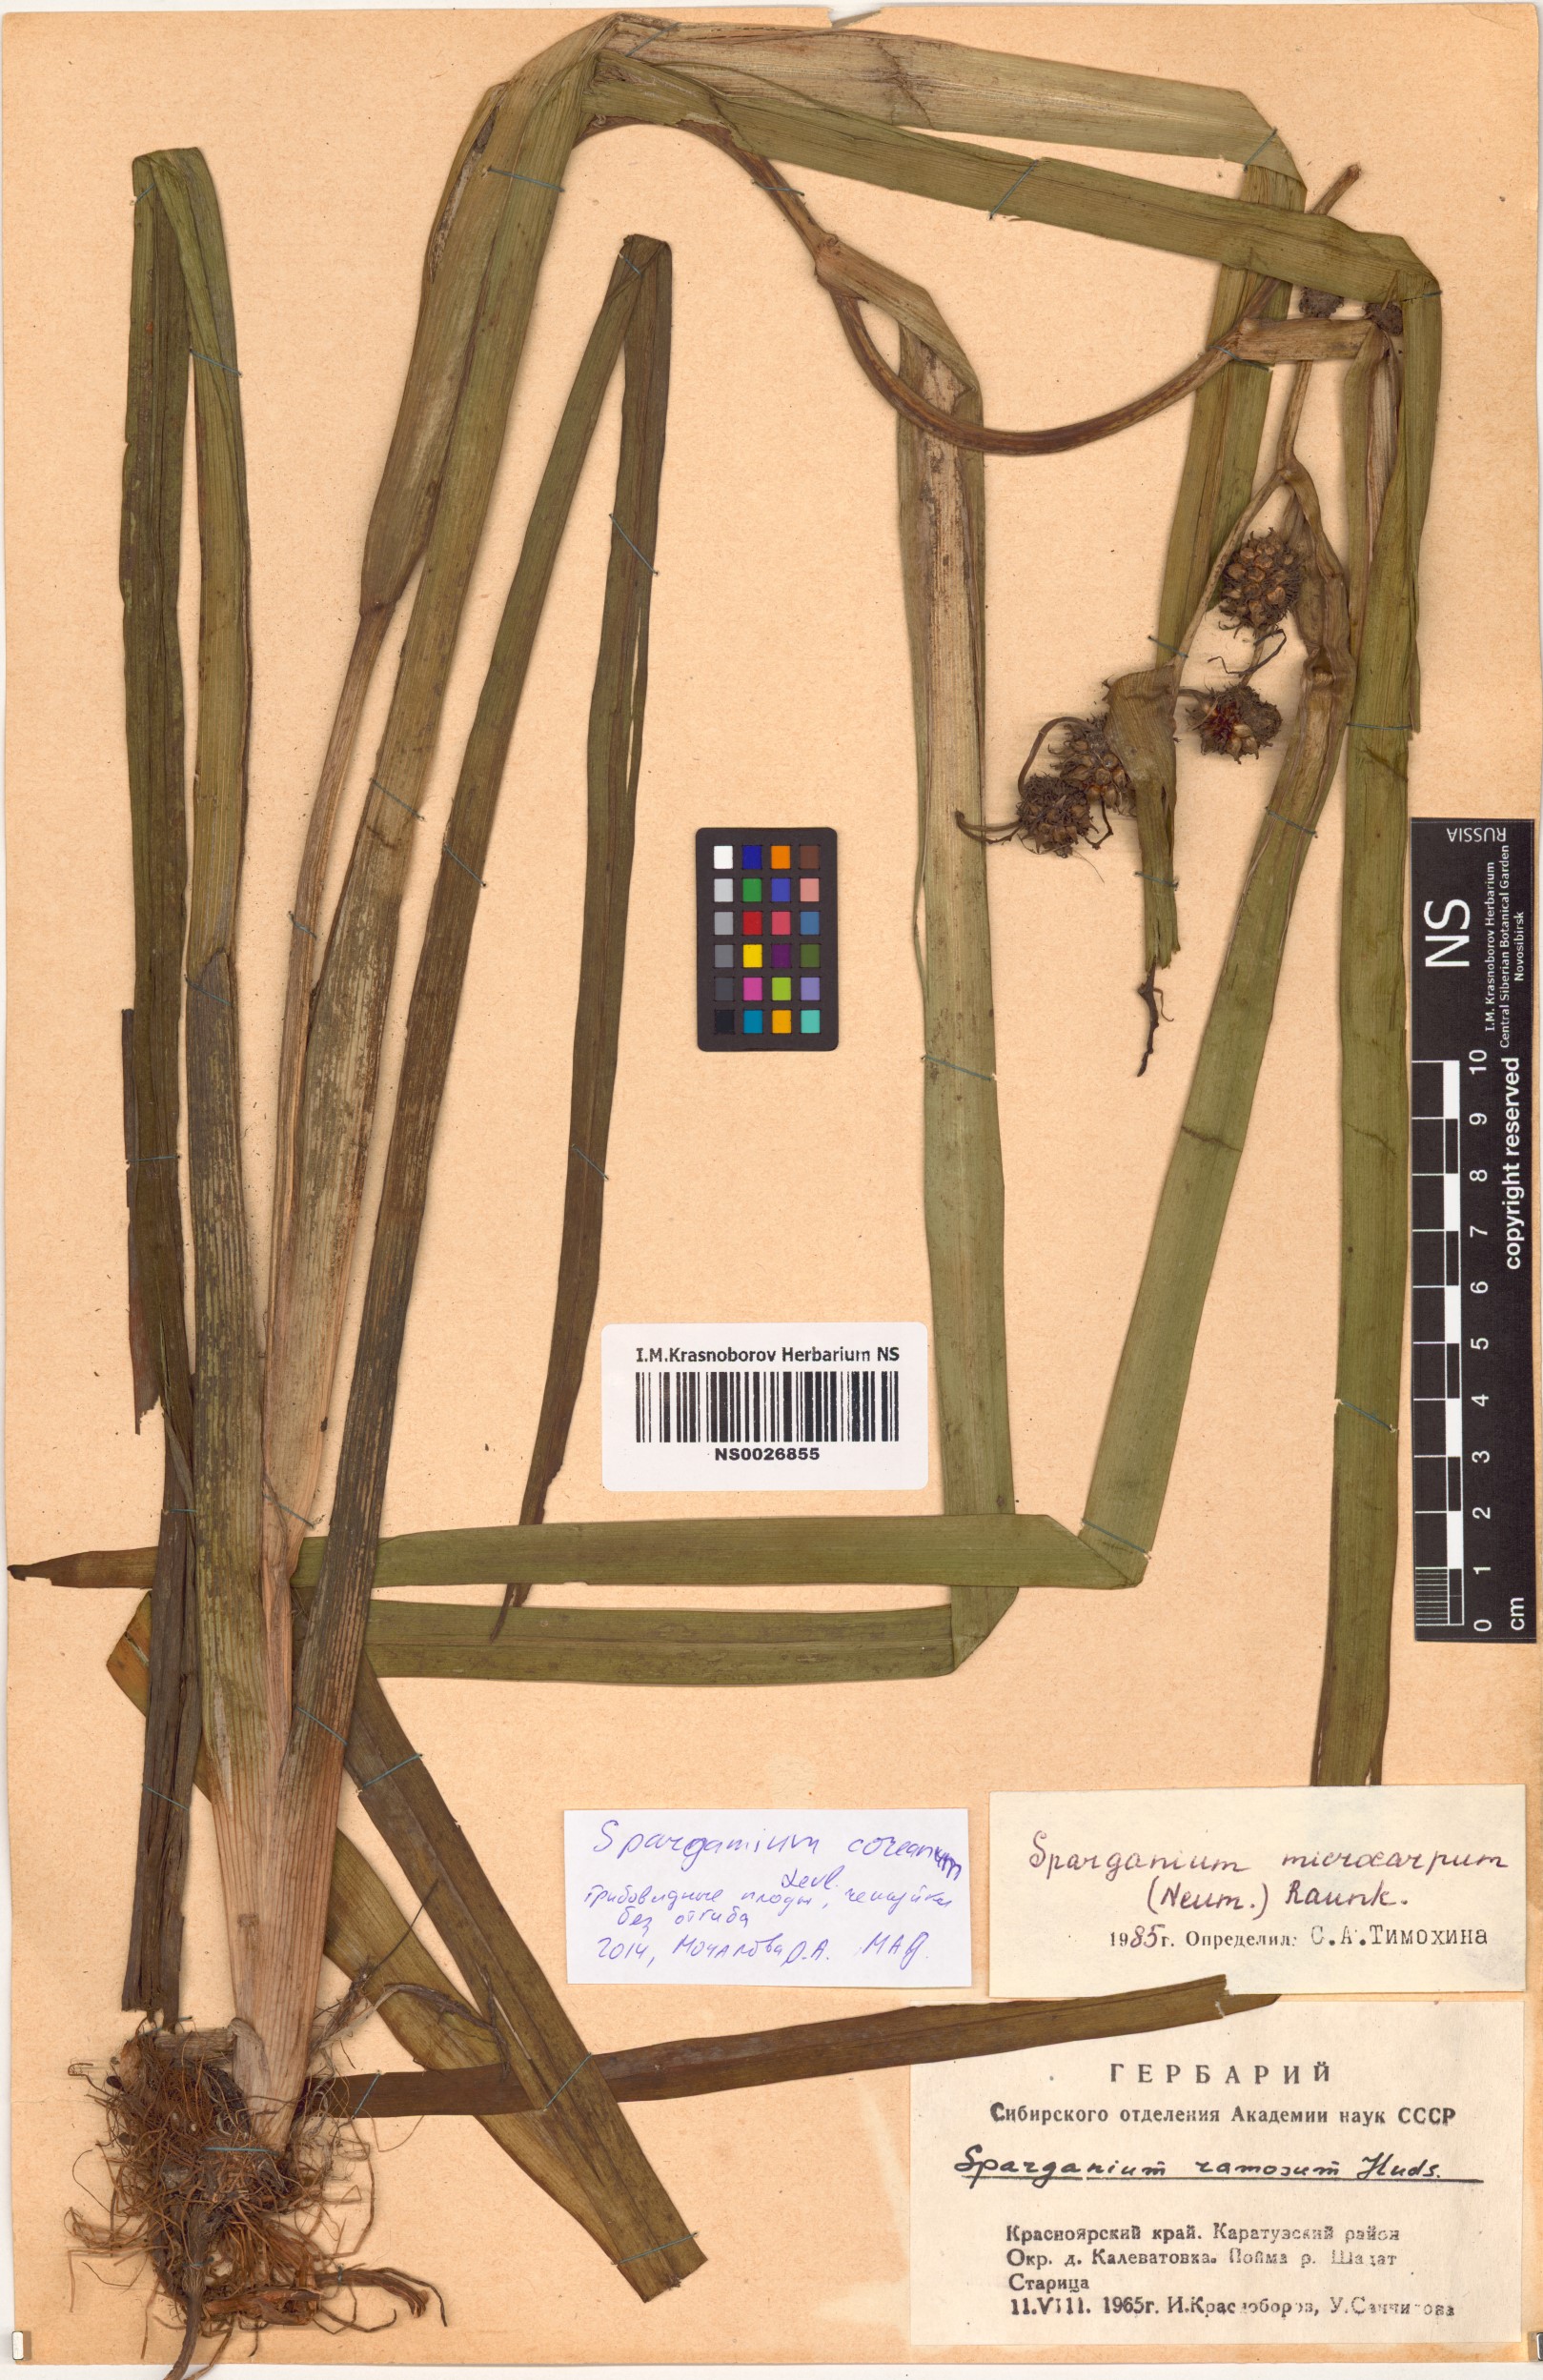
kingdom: Plantae
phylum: Tracheophyta
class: Liliopsida
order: Poales
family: Typhaceae
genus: Sparganium
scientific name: Sparganium eurycarpum
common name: Broad-fruited burreed
